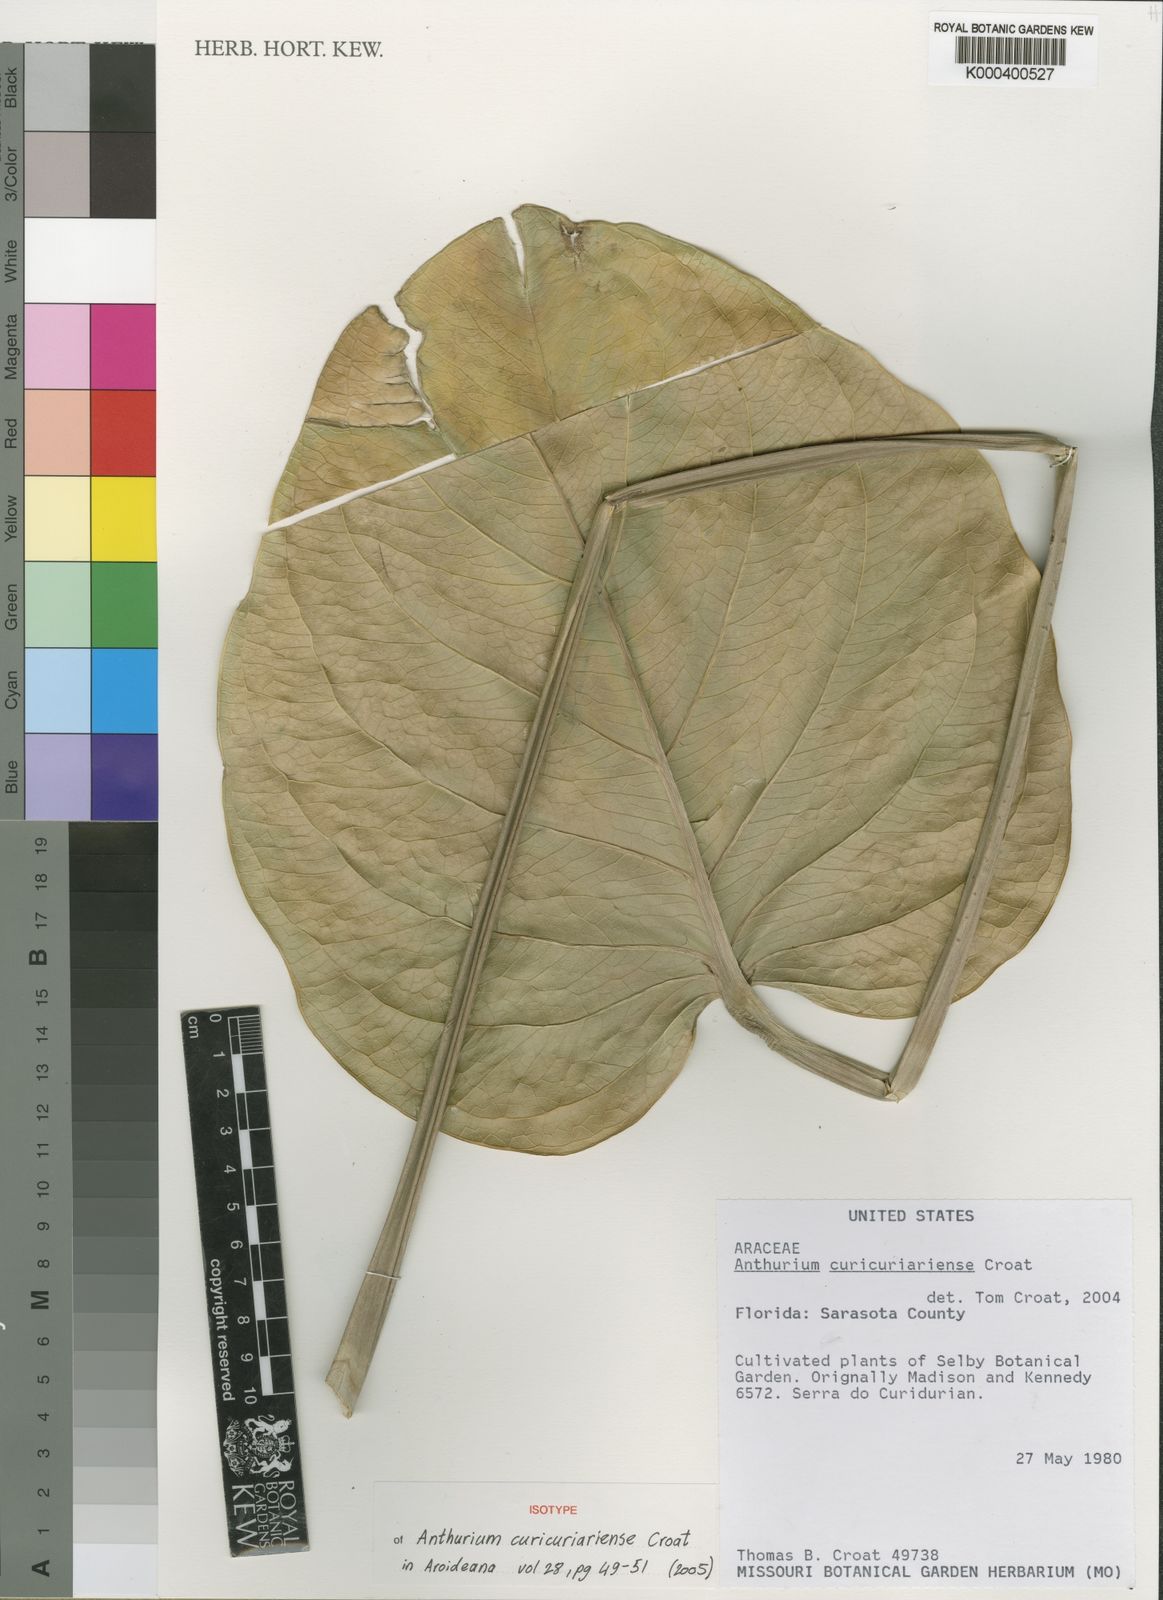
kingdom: Plantae
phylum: Tracheophyta
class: Liliopsida
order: Alismatales
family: Araceae
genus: Anthurium
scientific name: Anthurium curicuriariense
